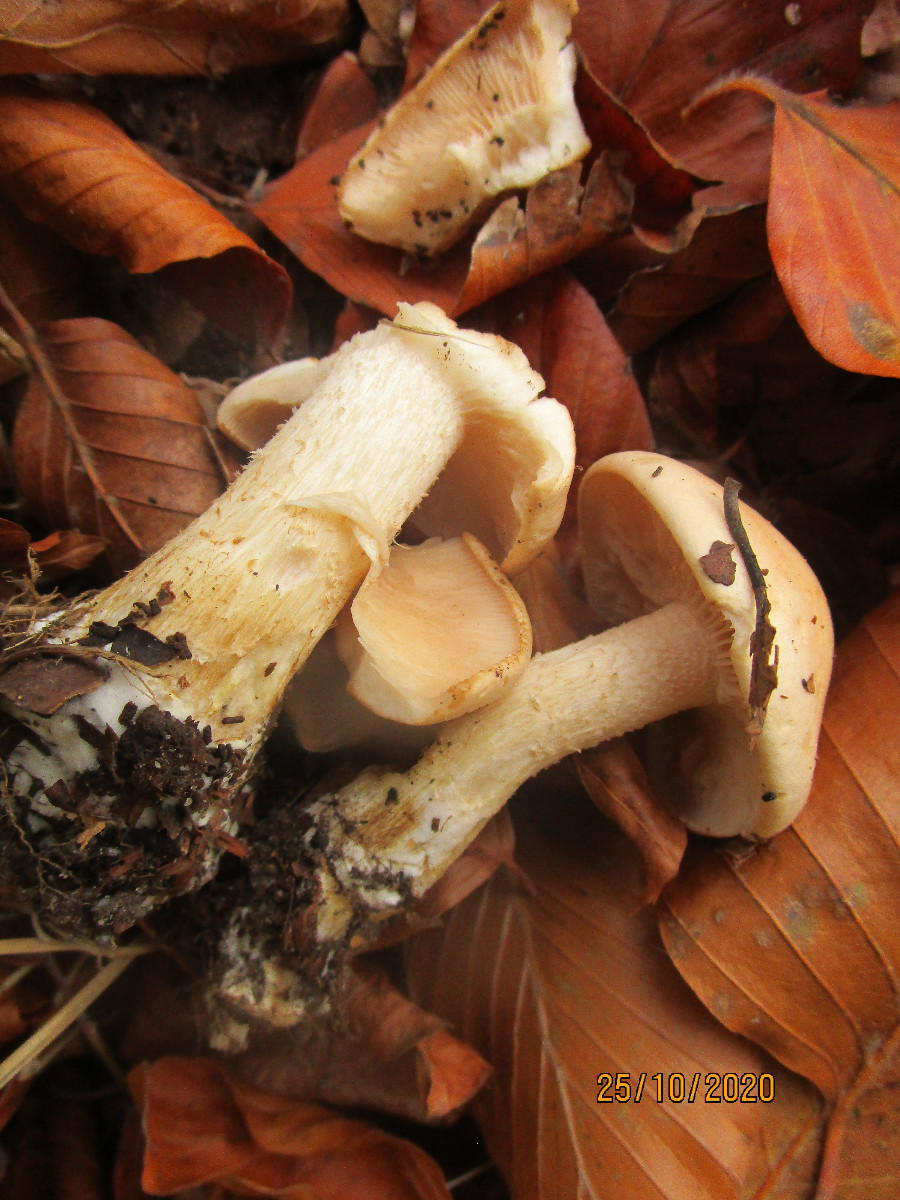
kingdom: Fungi
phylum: Basidiomycota
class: Agaricomycetes
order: Agaricales
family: Hymenogastraceae
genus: Hebeloma
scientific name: Hebeloma laterinum
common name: kakao-tåreblad
